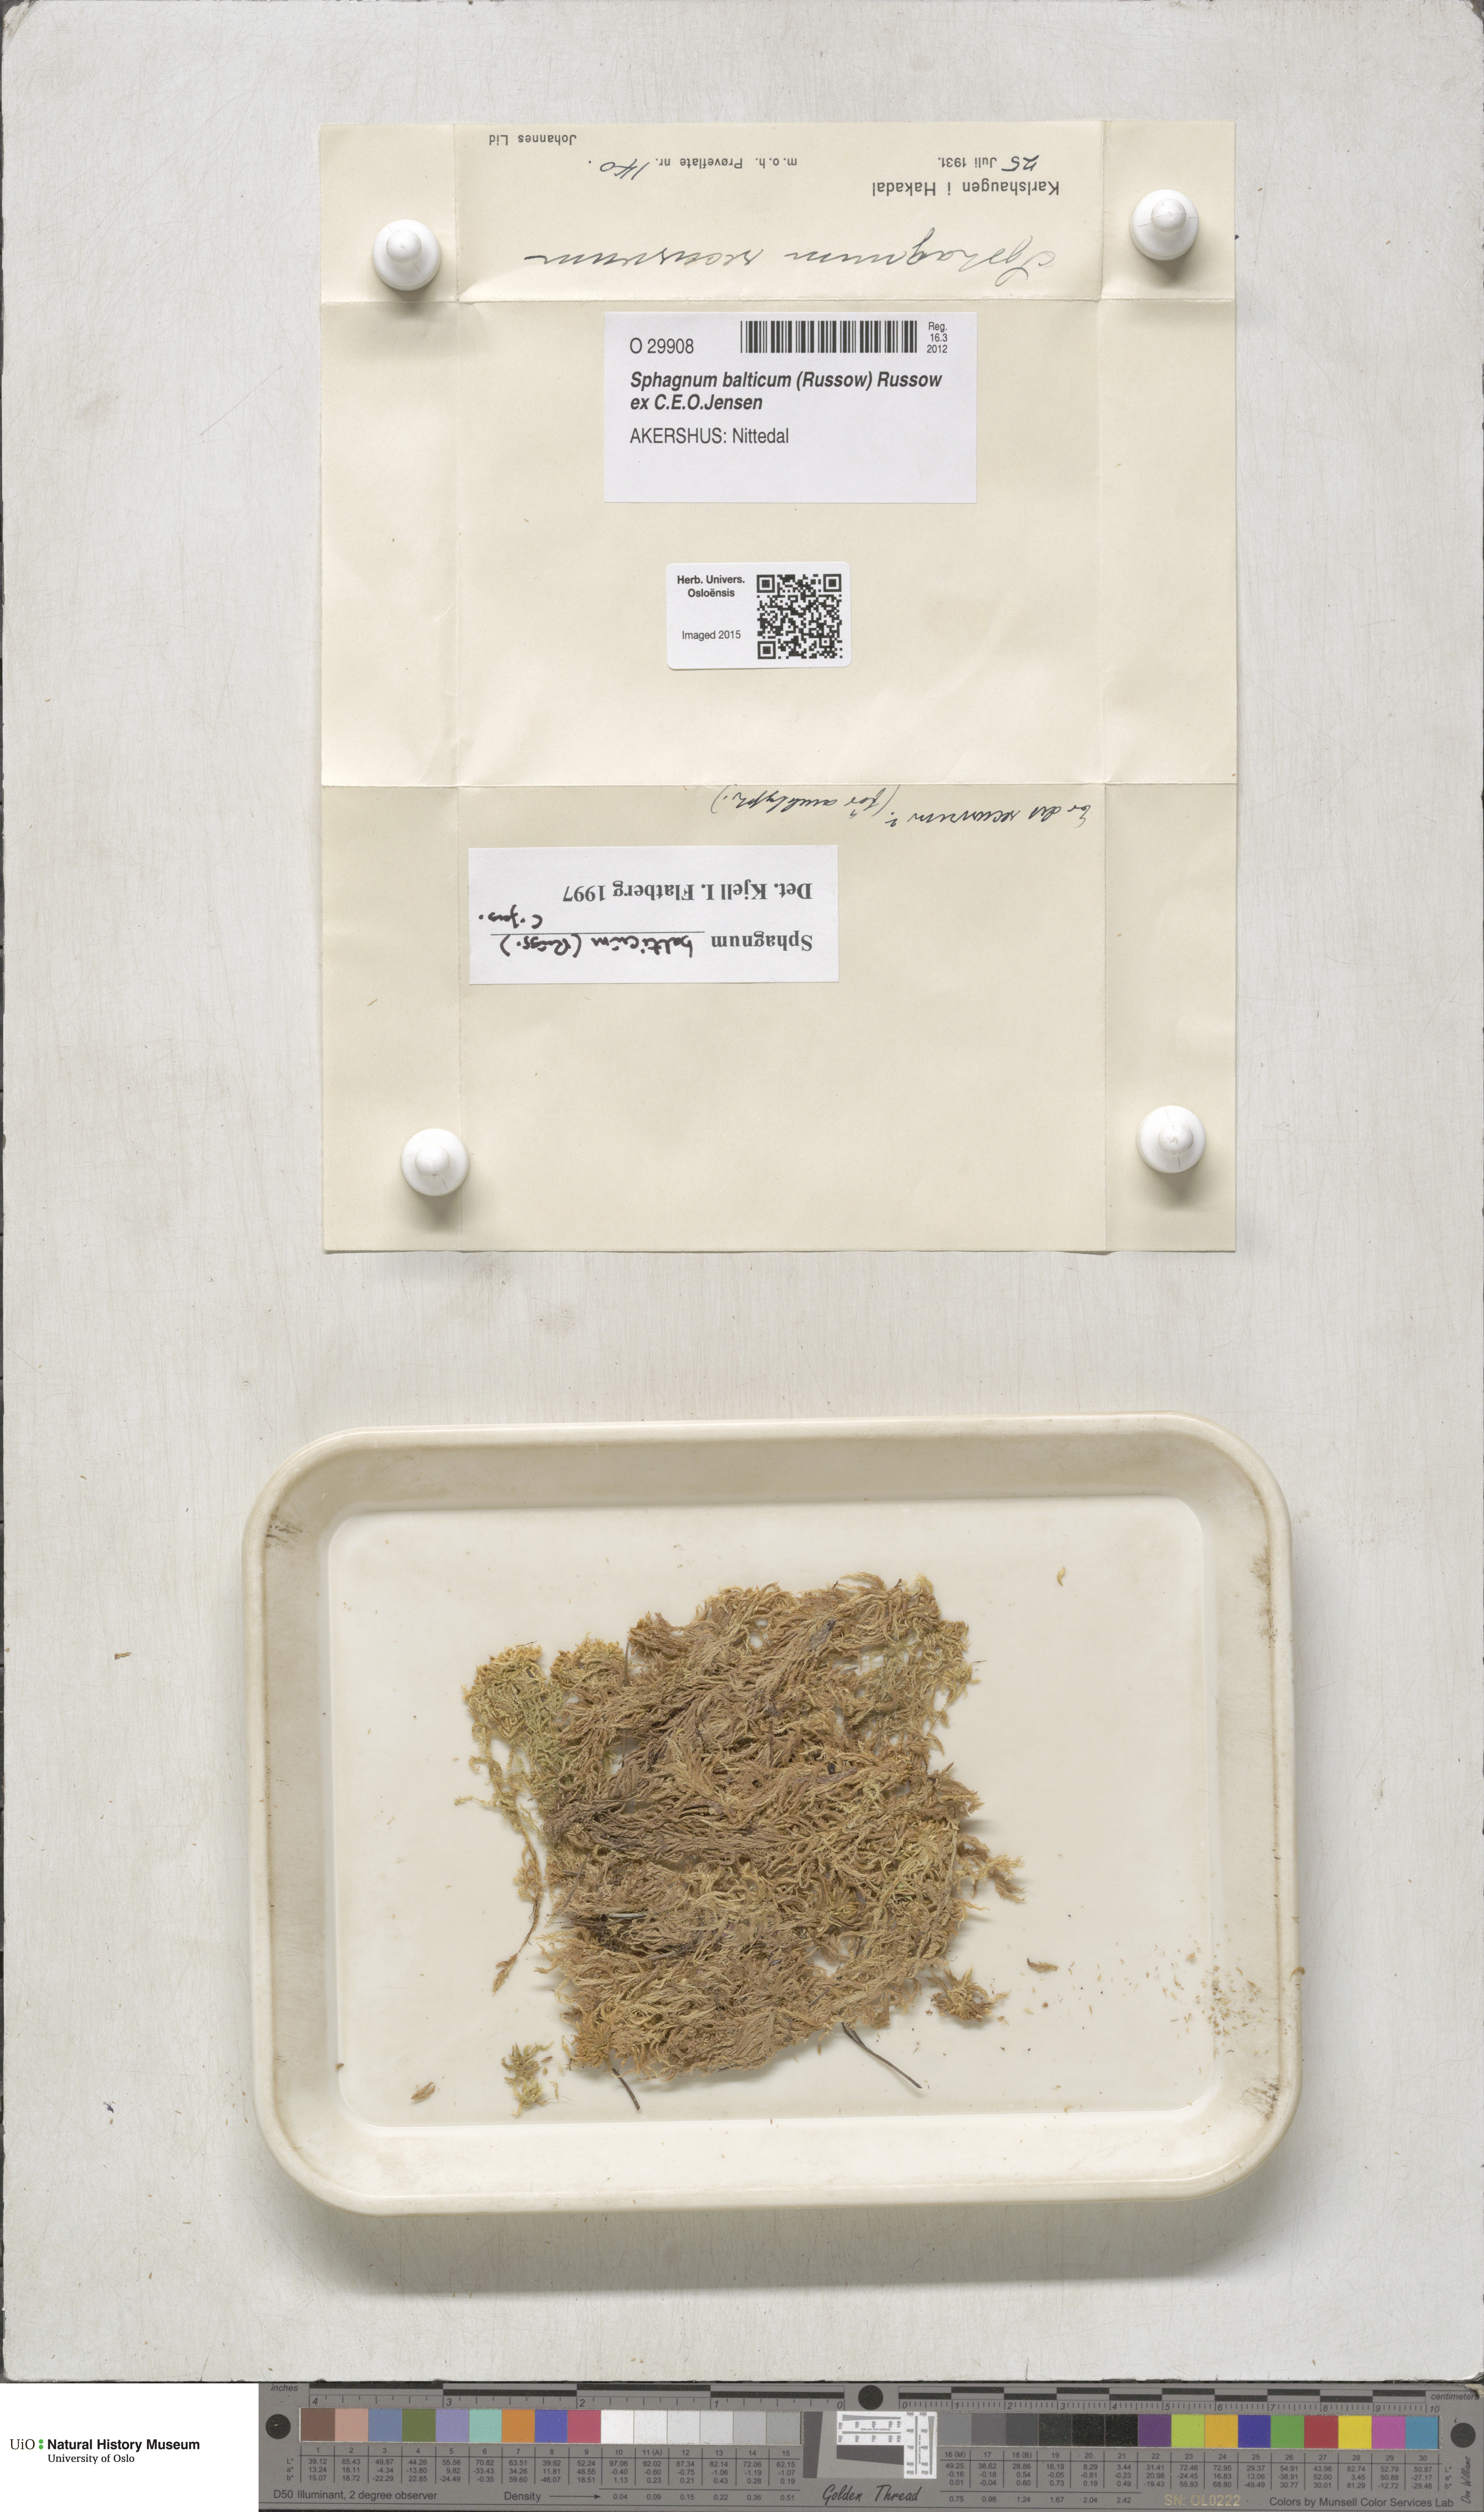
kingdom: Plantae
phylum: Bryophyta
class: Sphagnopsida
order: Sphagnales
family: Sphagnaceae
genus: Sphagnum
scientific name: Sphagnum balticum
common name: Baltic bog-moss
